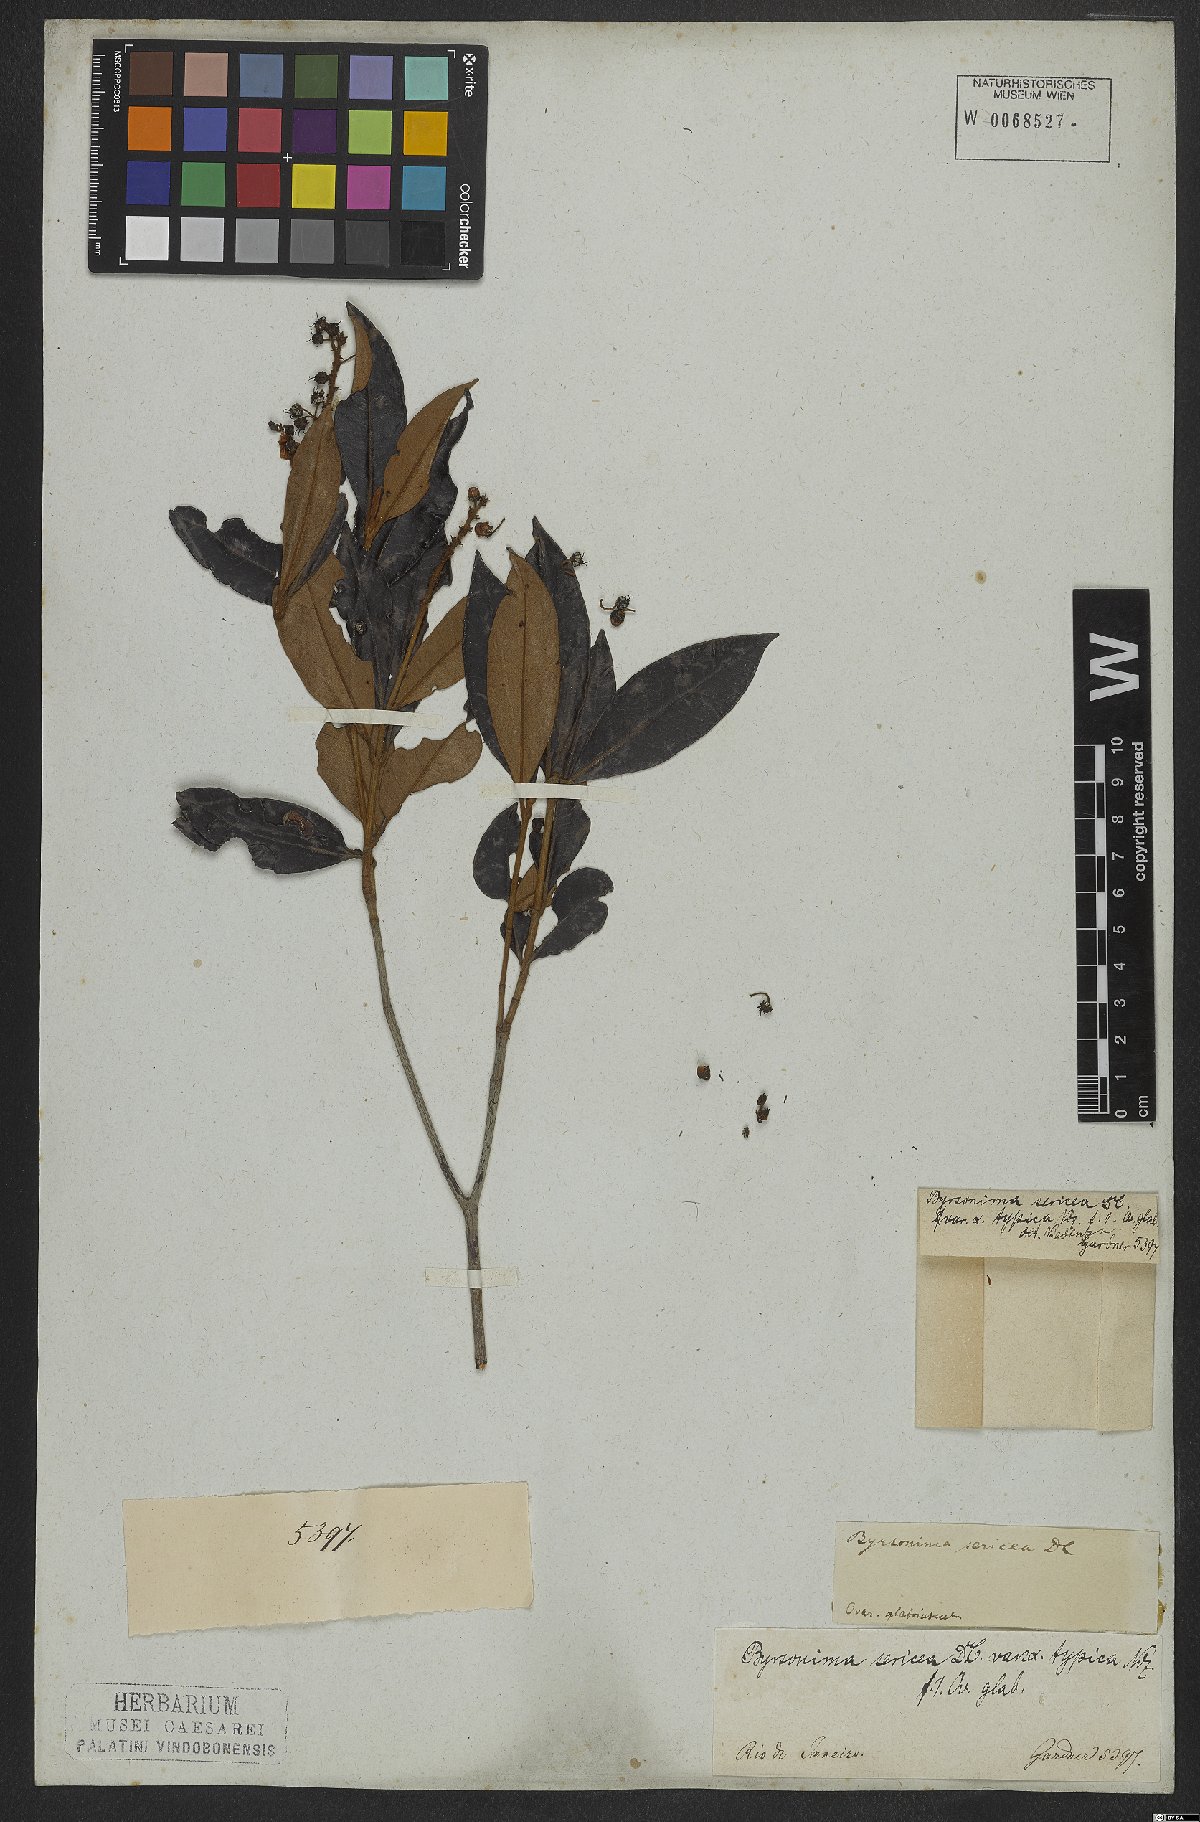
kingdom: Plantae
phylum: Tracheophyta
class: Magnoliopsida
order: Malpighiales
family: Malpighiaceae
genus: Byrsonima
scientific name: Byrsonima sericea
